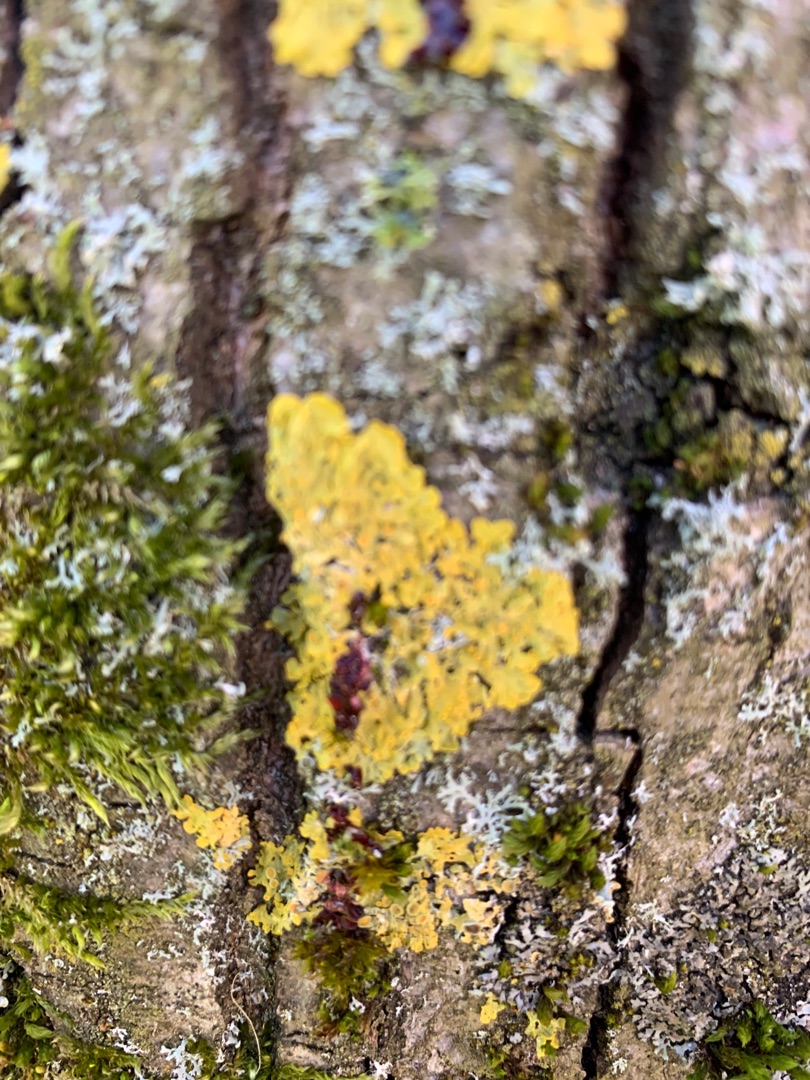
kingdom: Fungi
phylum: Ascomycota
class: Lecanoromycetes
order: Teloschistales
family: Teloschistaceae
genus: Xanthoria
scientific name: Xanthoria parietina
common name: Almindelig væggelav
